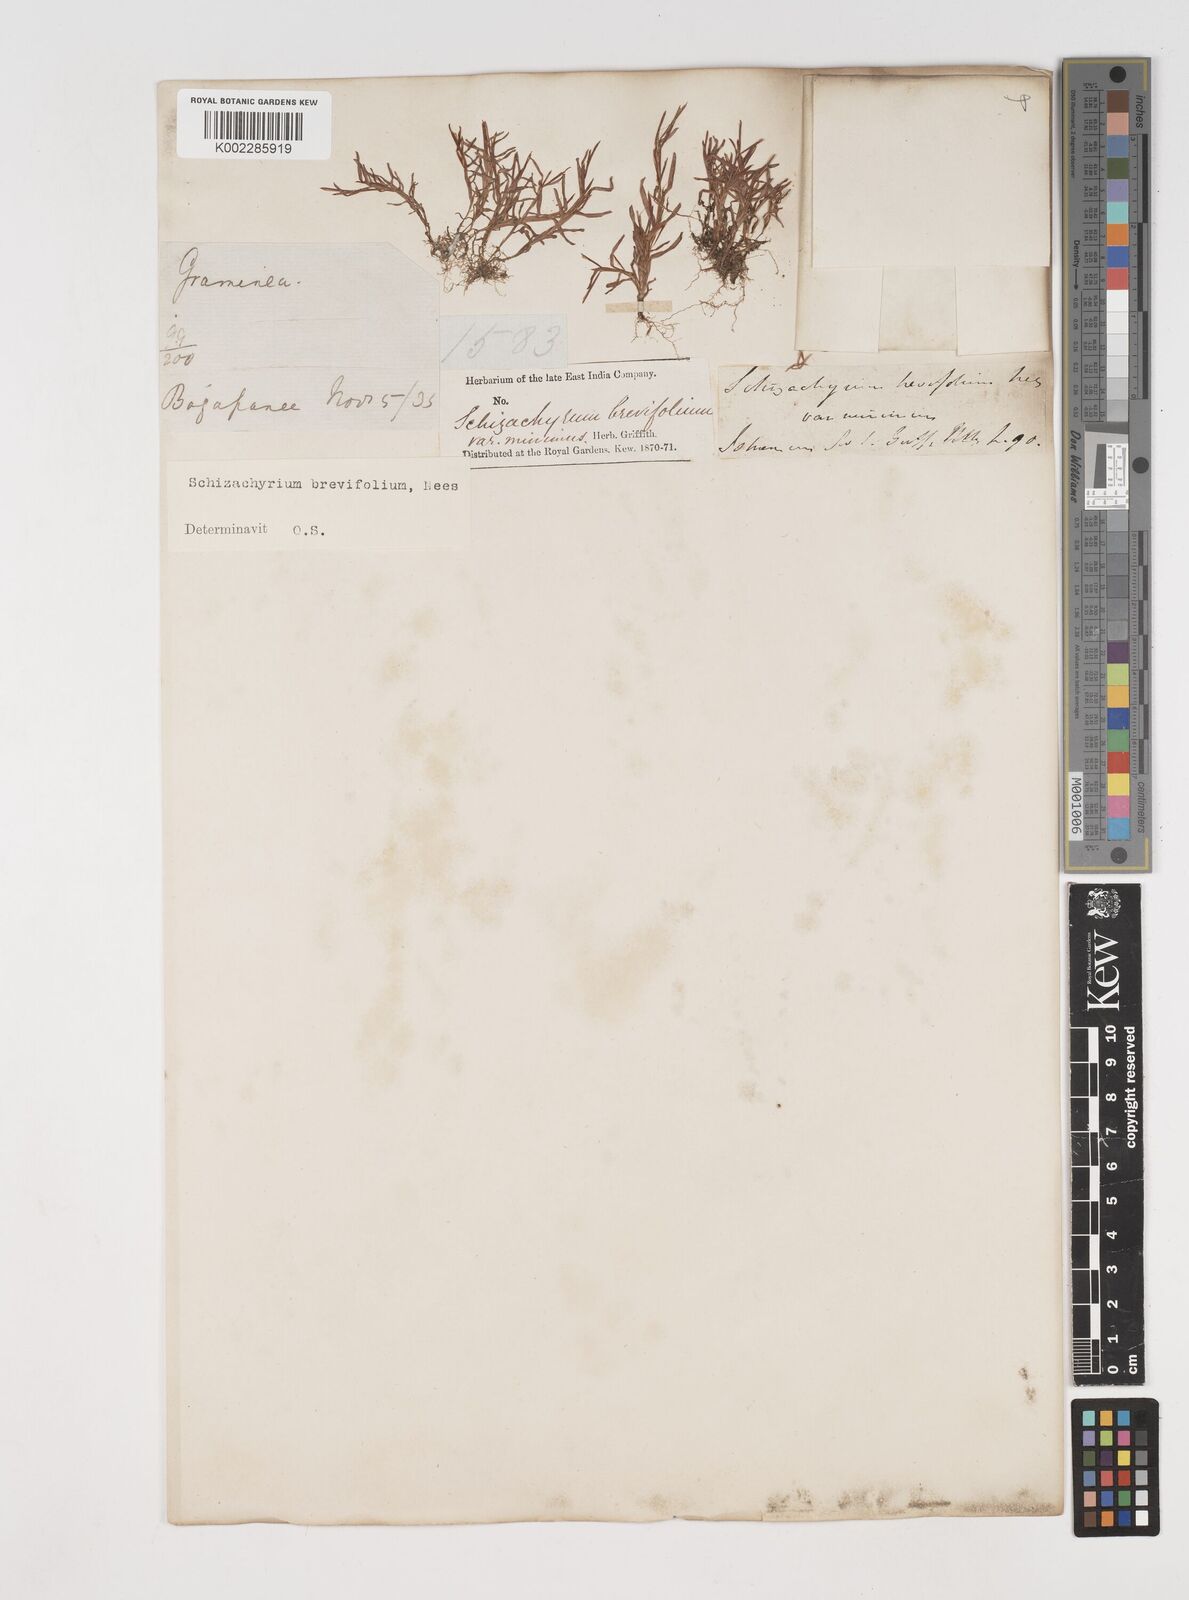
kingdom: Plantae
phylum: Tracheophyta
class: Liliopsida
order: Poales
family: Poaceae
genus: Schizachyrium
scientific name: Schizachyrium brevifolium
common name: Serillo dulce
